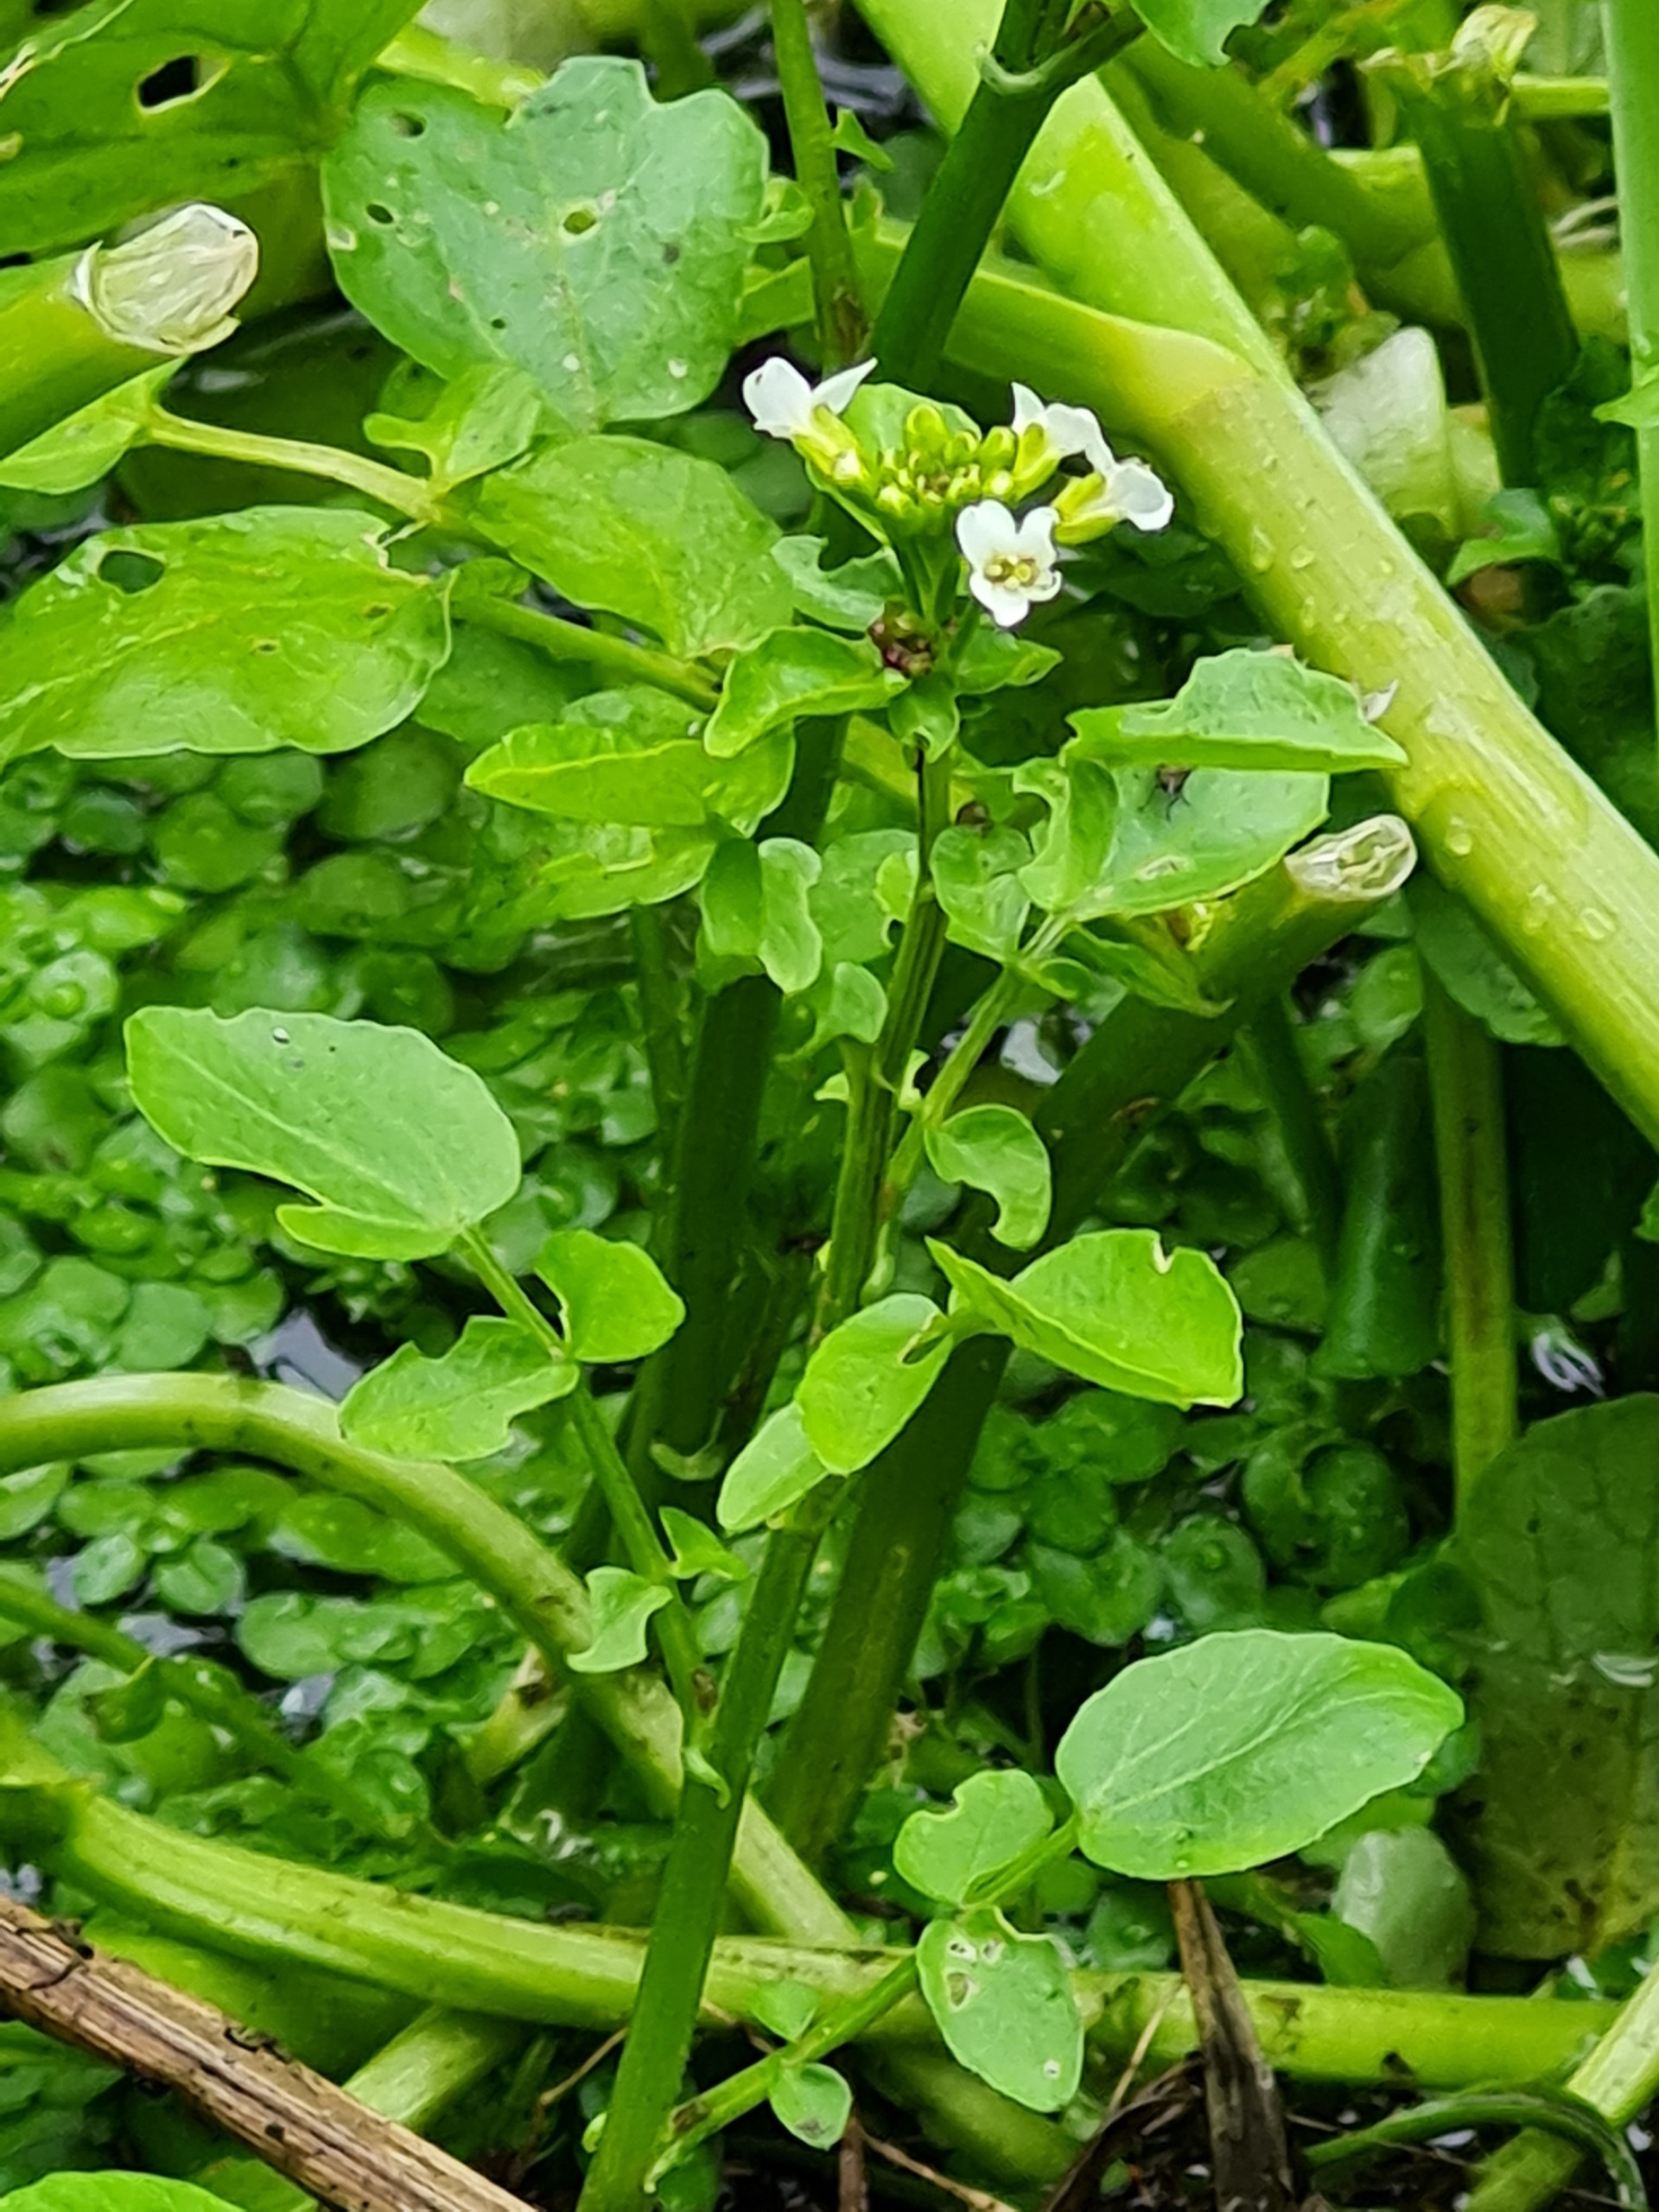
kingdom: Plantae
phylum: Tracheophyta
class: Magnoliopsida
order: Brassicales
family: Brassicaceae
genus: Nasturtium
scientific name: Nasturtium
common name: Brøndkarseslægten
